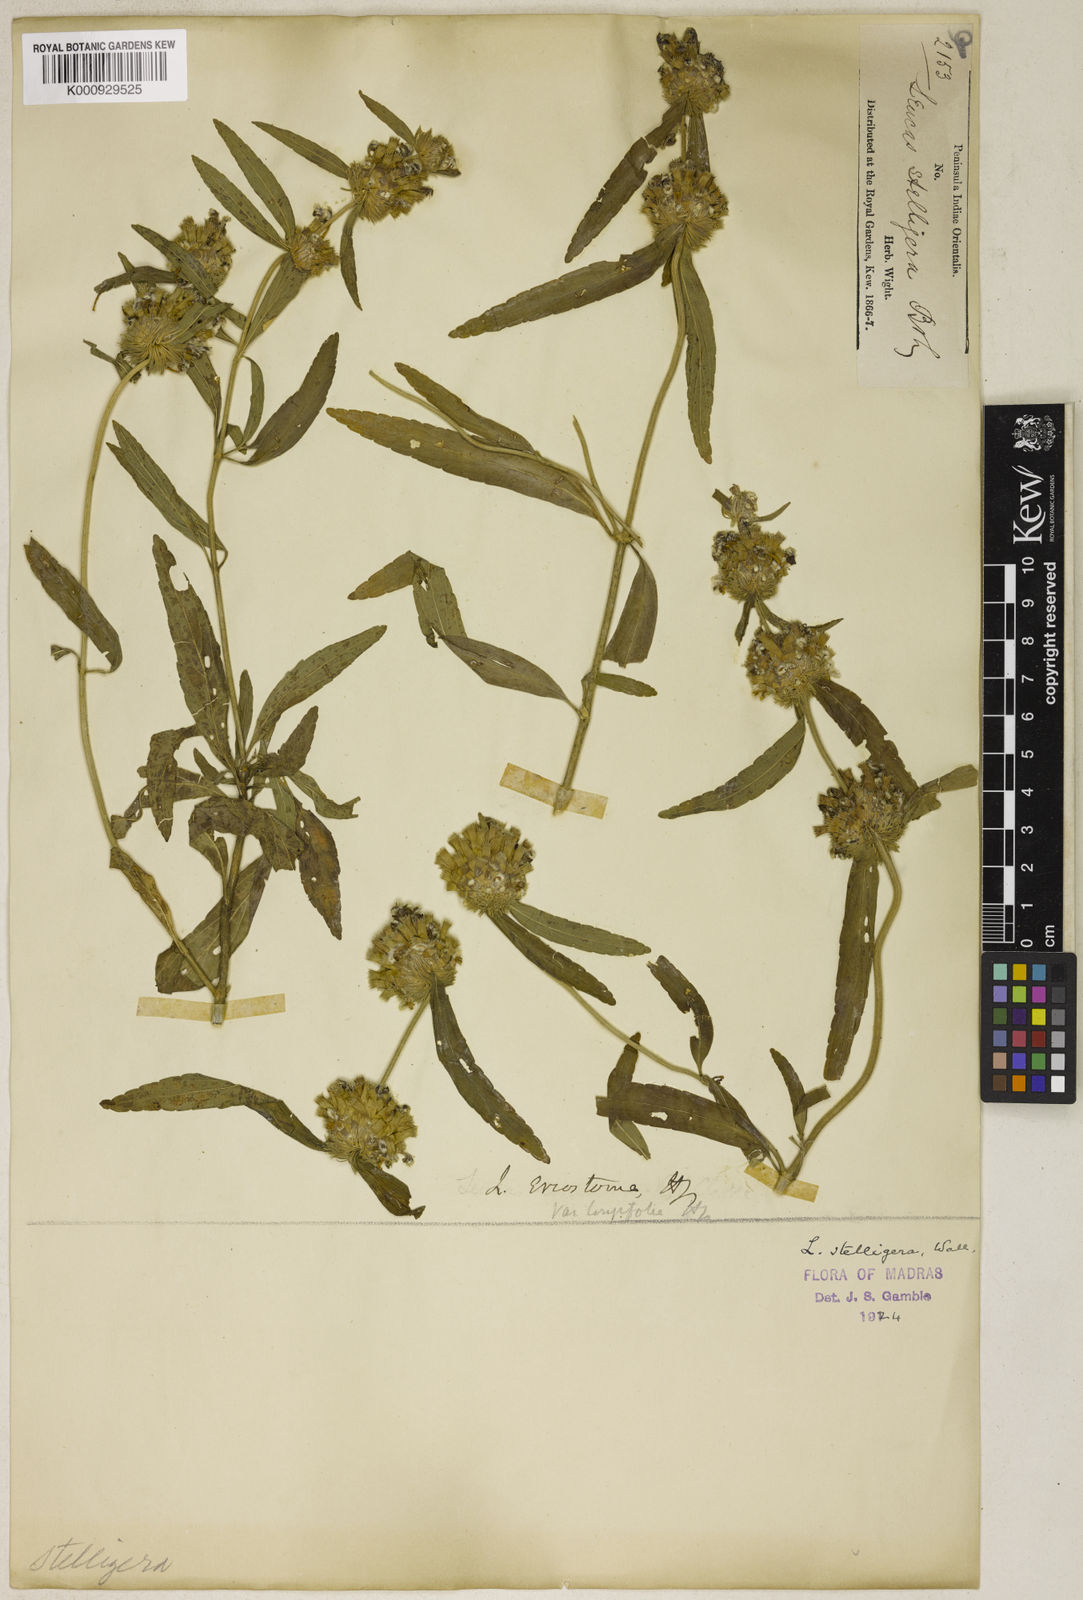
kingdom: Plantae
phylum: Tracheophyta
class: Magnoliopsida
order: Lamiales
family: Lamiaceae
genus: Leucas
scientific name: Leucas eriostoma
